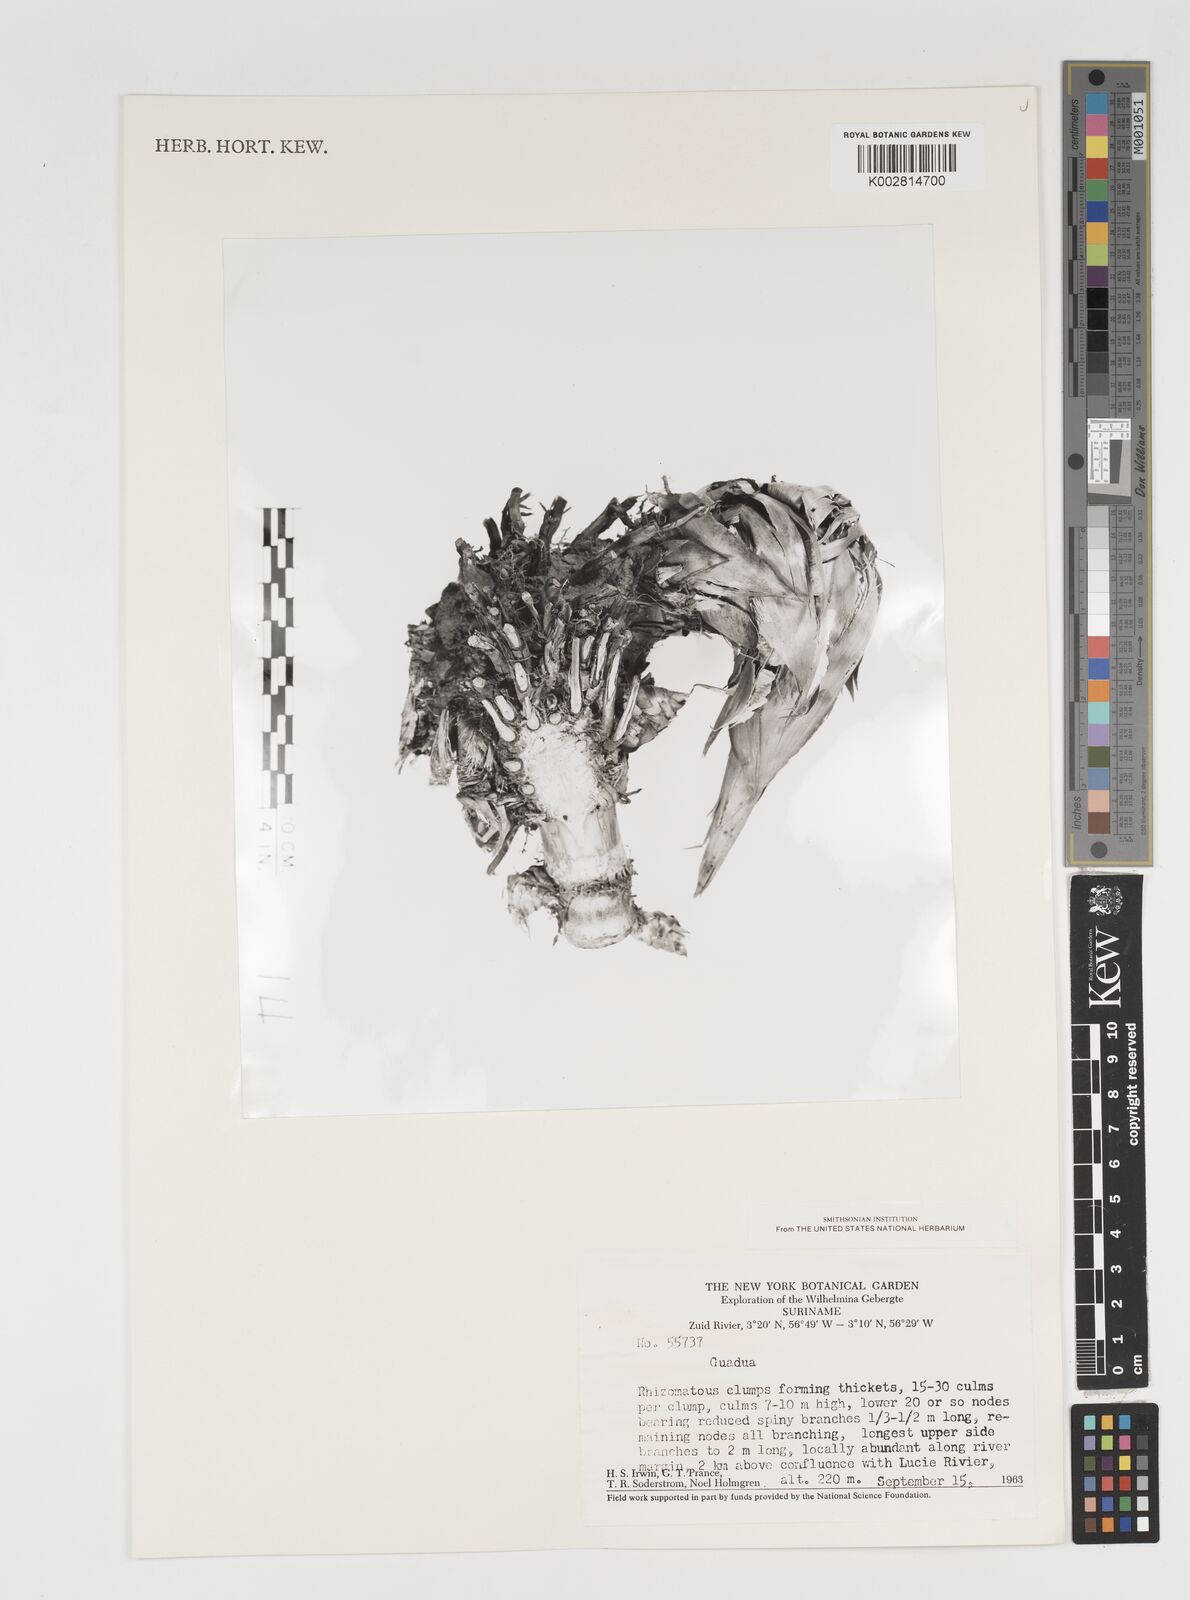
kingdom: Plantae
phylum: Tracheophyta
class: Liliopsida
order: Poales
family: Poaceae
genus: Guadua
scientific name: Guadua
